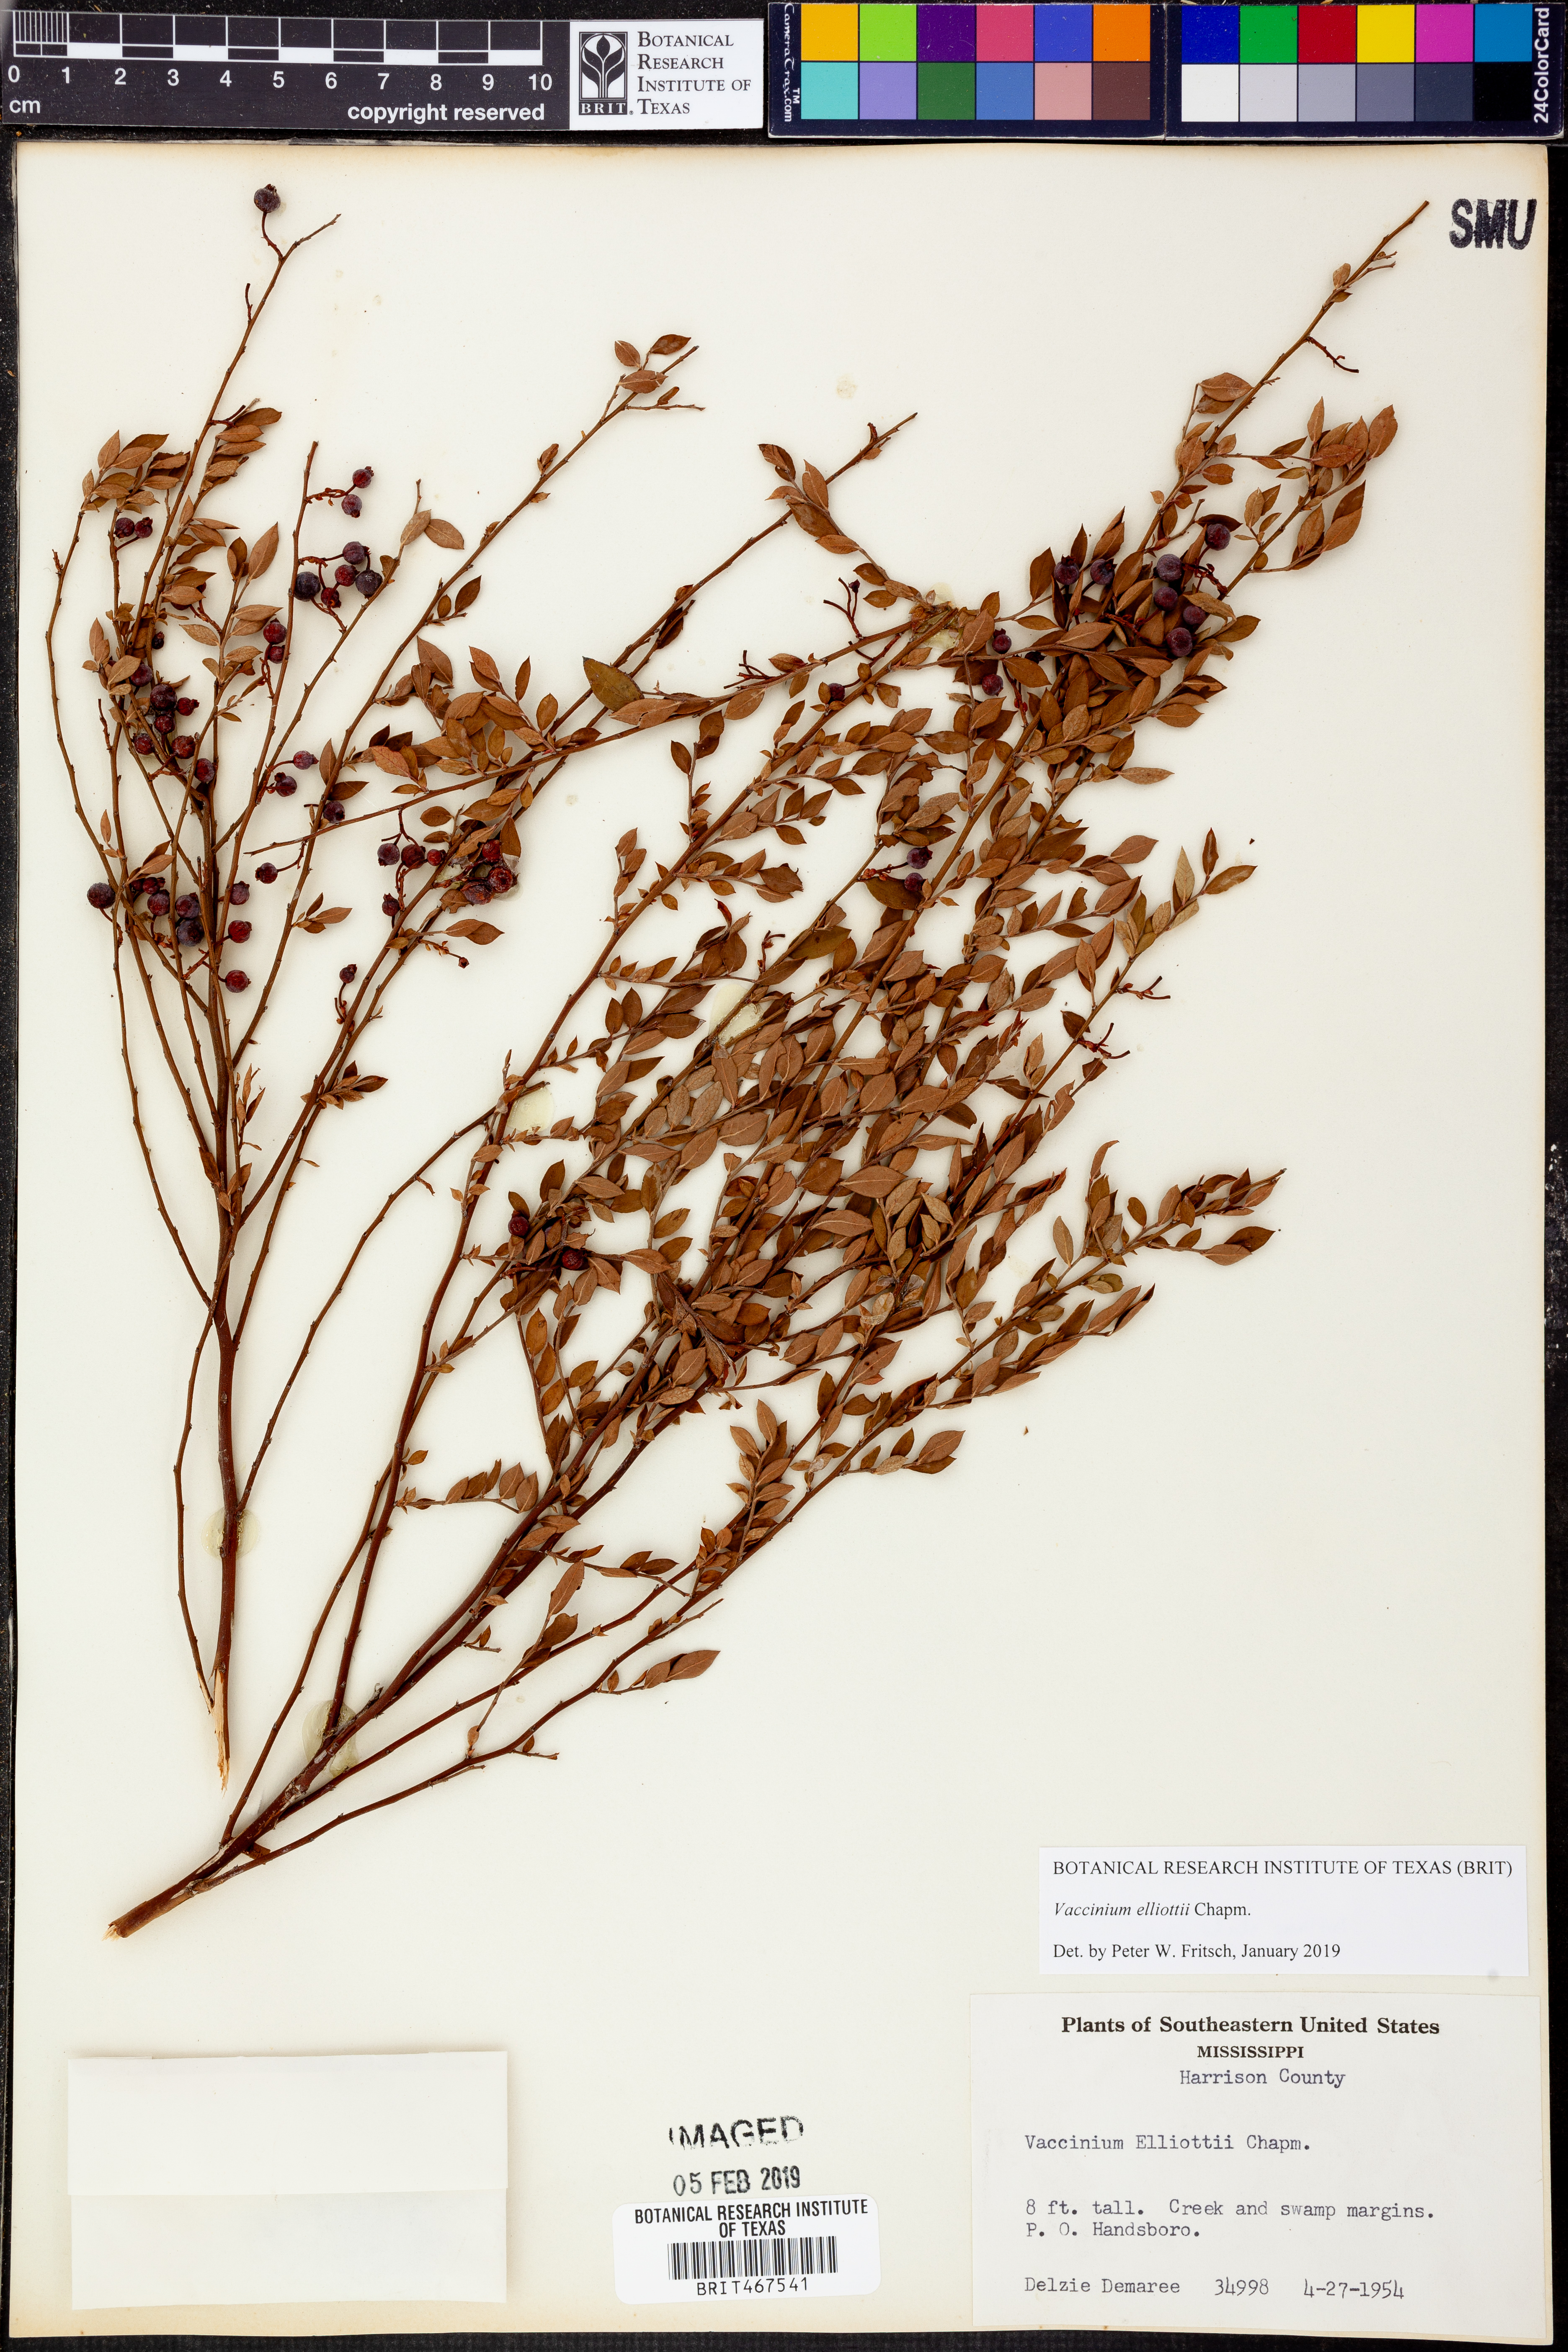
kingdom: Plantae
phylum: Tracheophyta
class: Magnoliopsida
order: Ericales
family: Ericaceae
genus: Vaccinium
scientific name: Vaccinium corymbosum
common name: Blueberry
